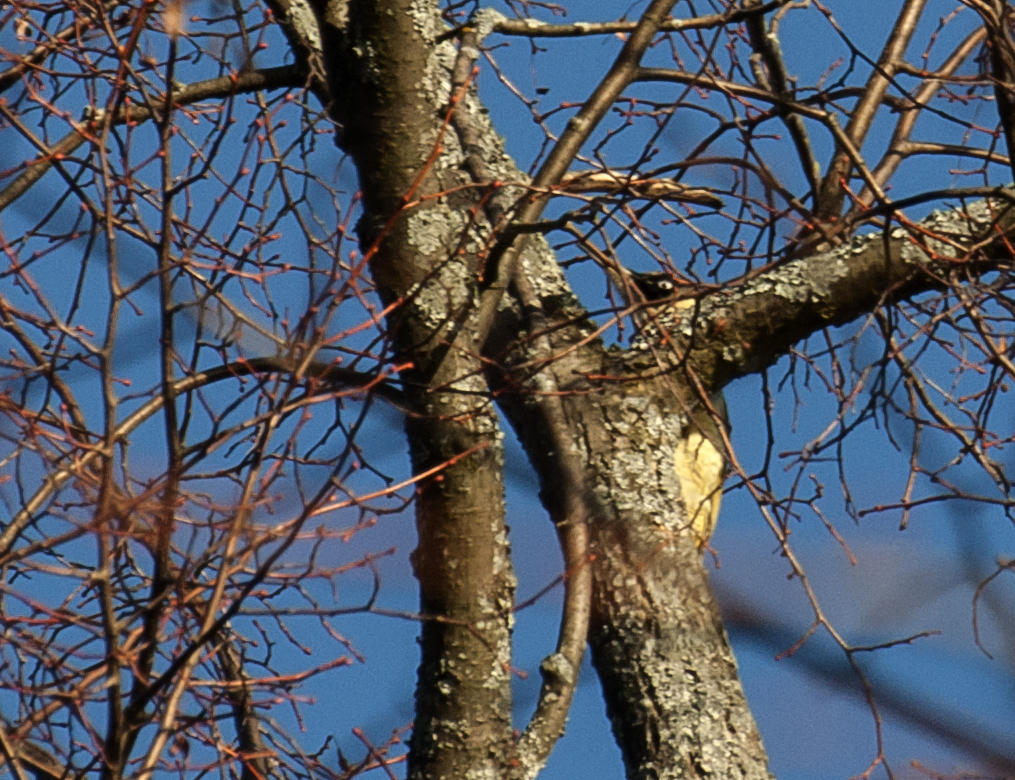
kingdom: Animalia
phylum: Chordata
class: Aves
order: Piciformes
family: Picidae
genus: Picus
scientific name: Picus viridis
